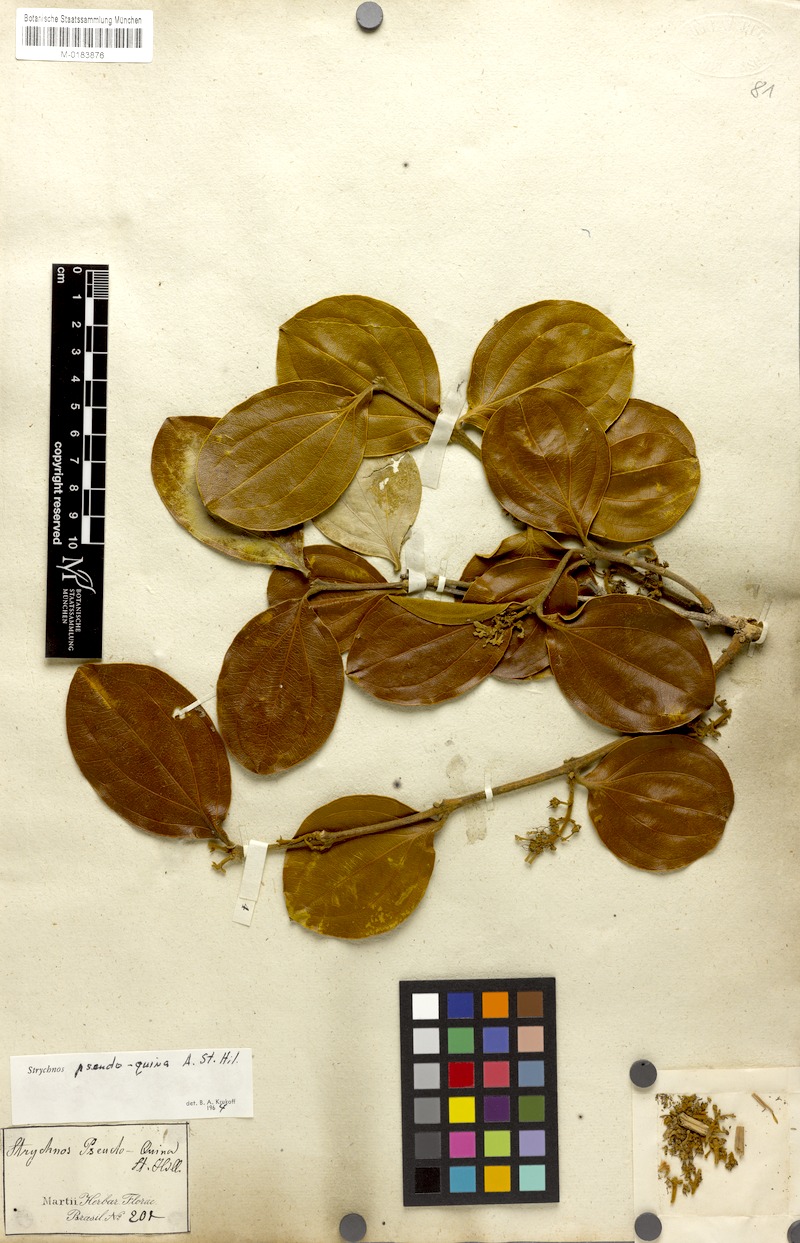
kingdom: Plantae
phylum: Tracheophyta
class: Magnoliopsida
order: Gentianales
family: Loganiaceae
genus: Strychnos
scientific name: Strychnos pseudoquina
